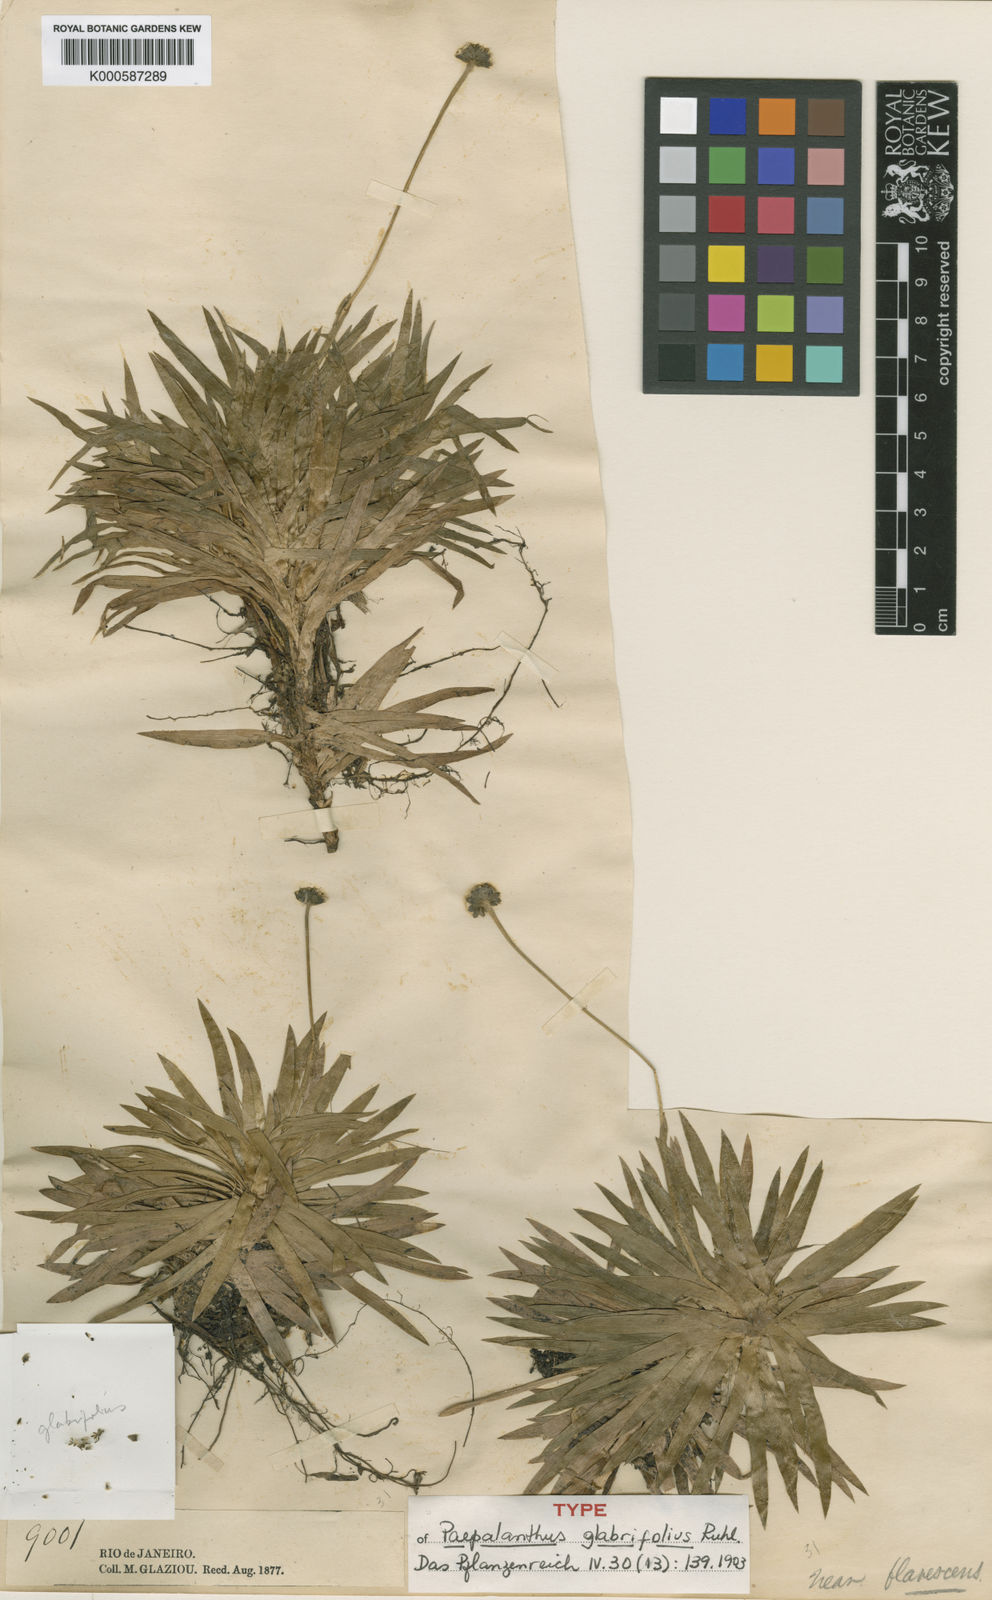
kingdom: Plantae
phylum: Tracheophyta
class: Liliopsida
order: Poales
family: Eriocaulaceae
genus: Paepalanthus
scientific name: Paepalanthus glabrifolius
